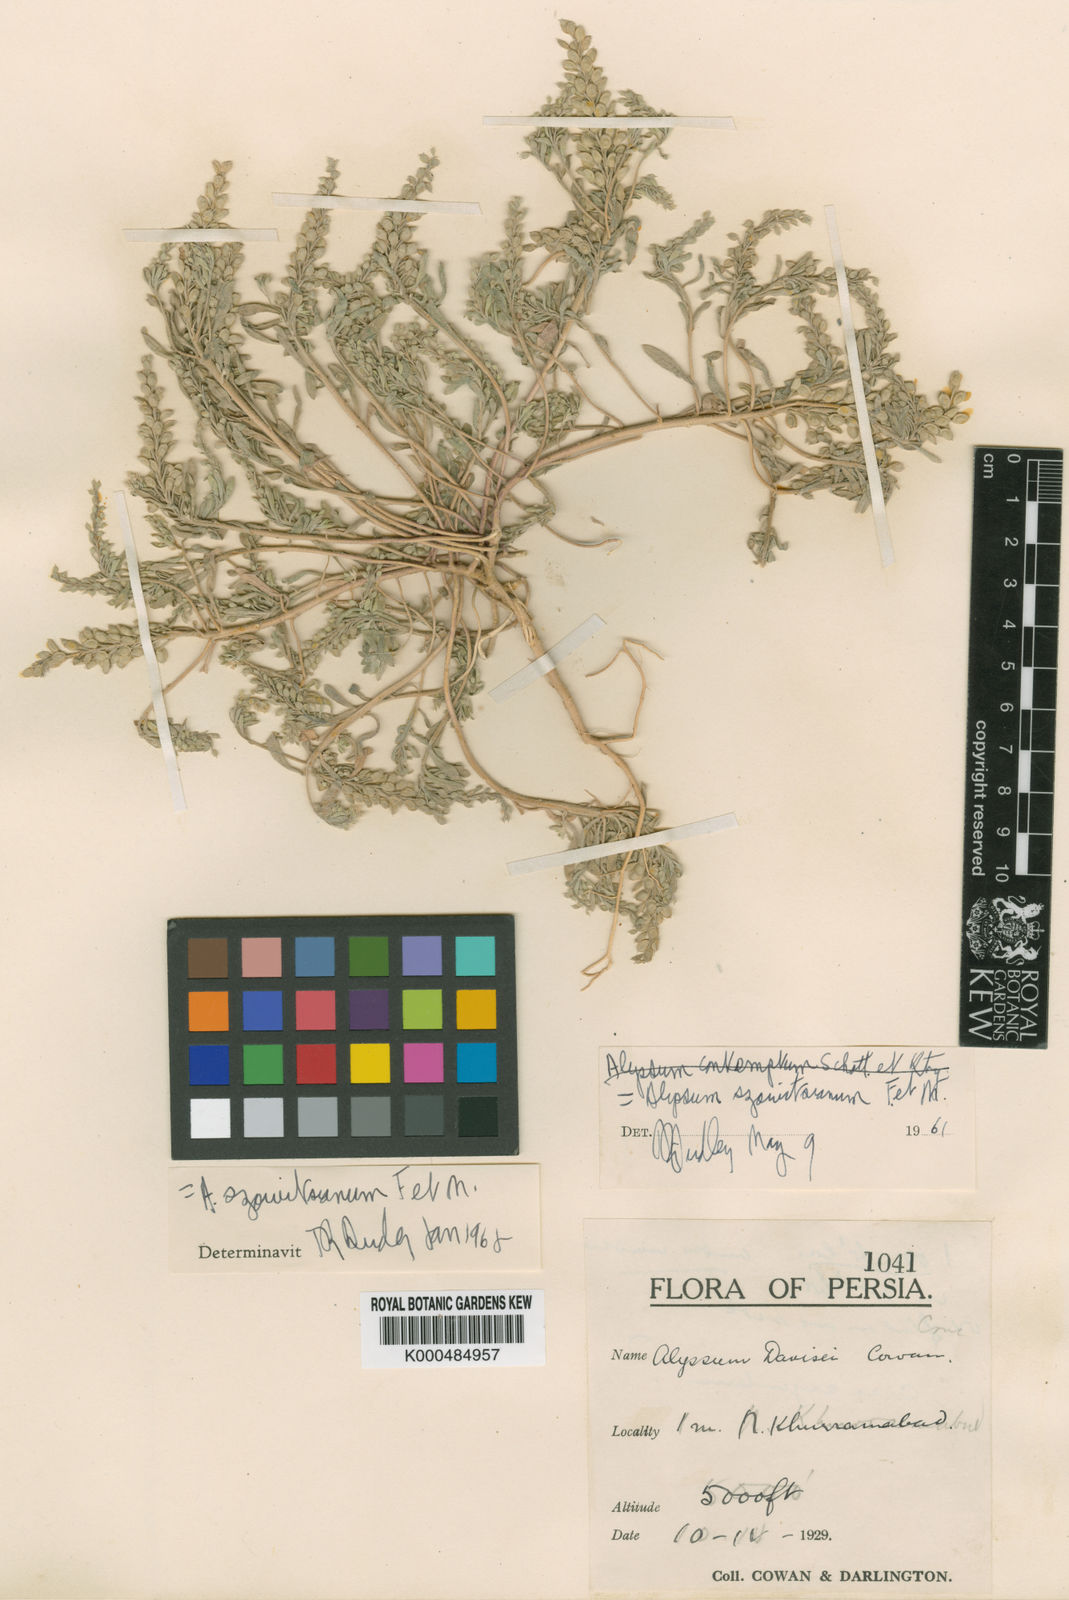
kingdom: Plantae
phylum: Tracheophyta
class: Magnoliopsida
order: Brassicales
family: Brassicaceae
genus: Alyssum
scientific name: Alyssum szovitsianum
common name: Szowits' madwort
